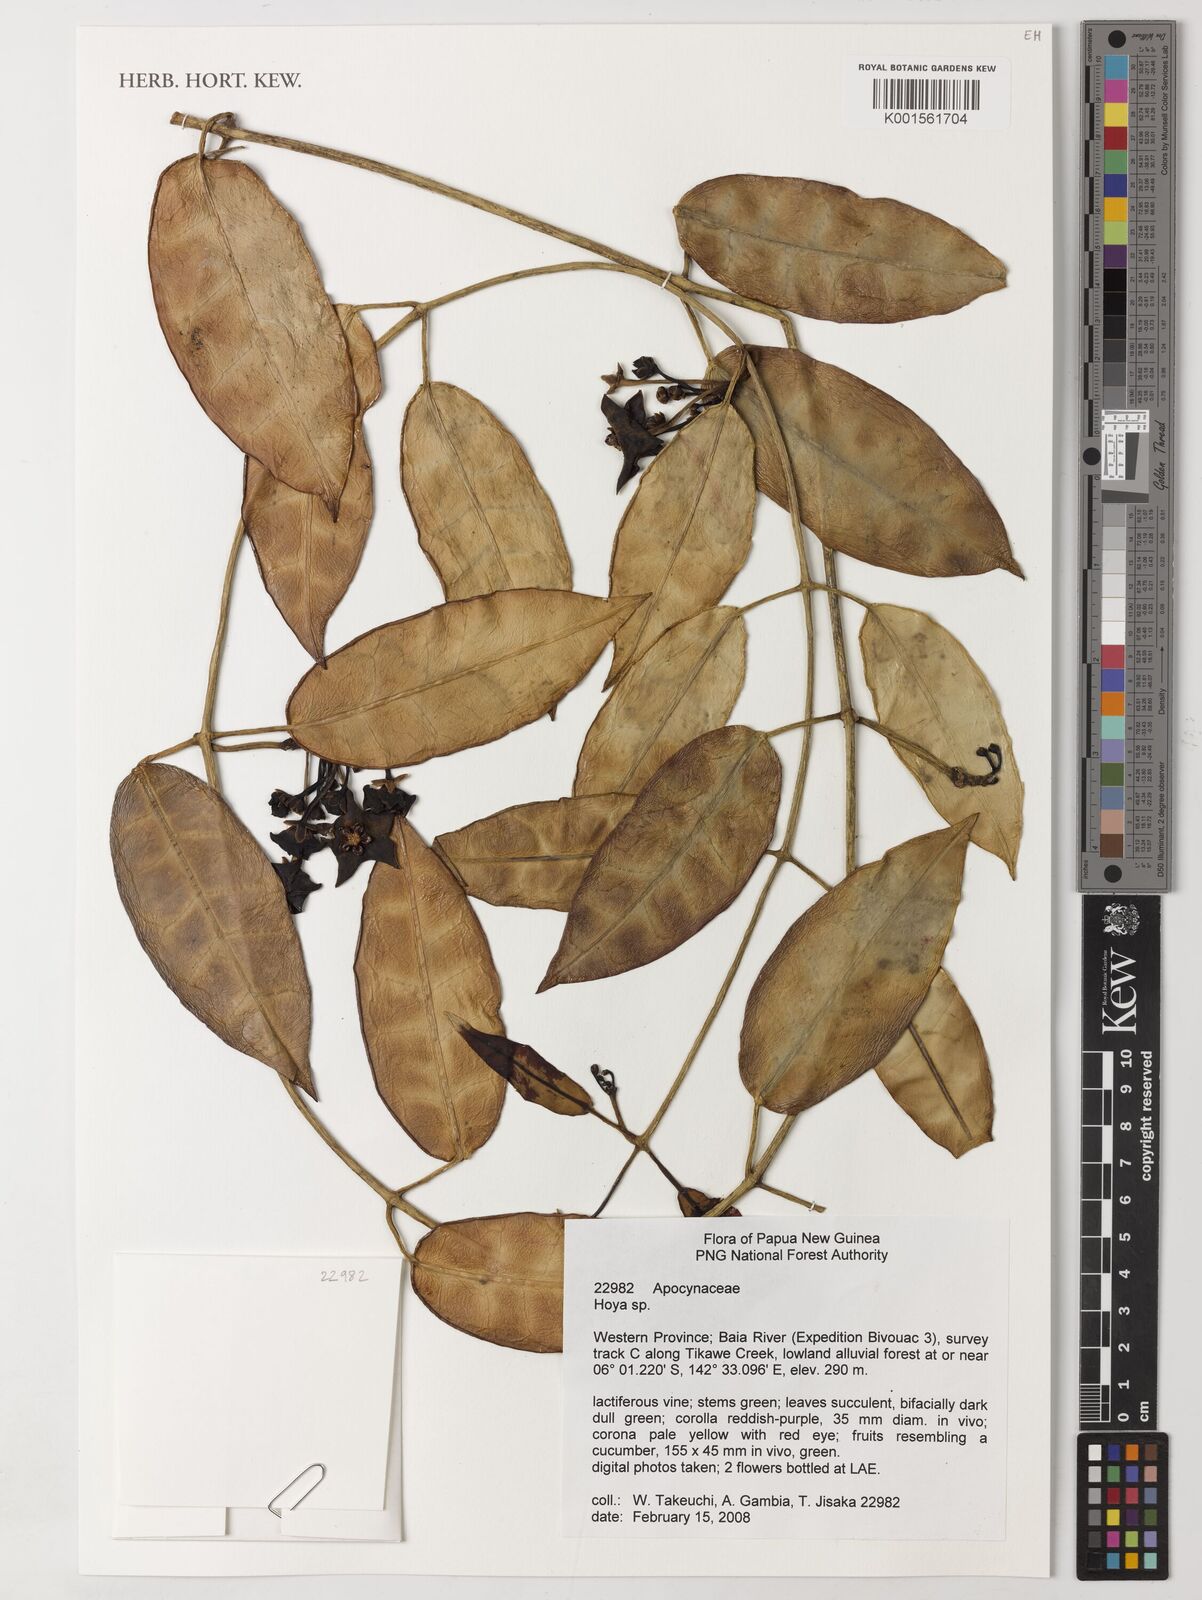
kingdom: Plantae
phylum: Tracheophyta
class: Magnoliopsida
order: Gentianales
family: Apocynaceae
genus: Hoya
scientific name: Hoya
